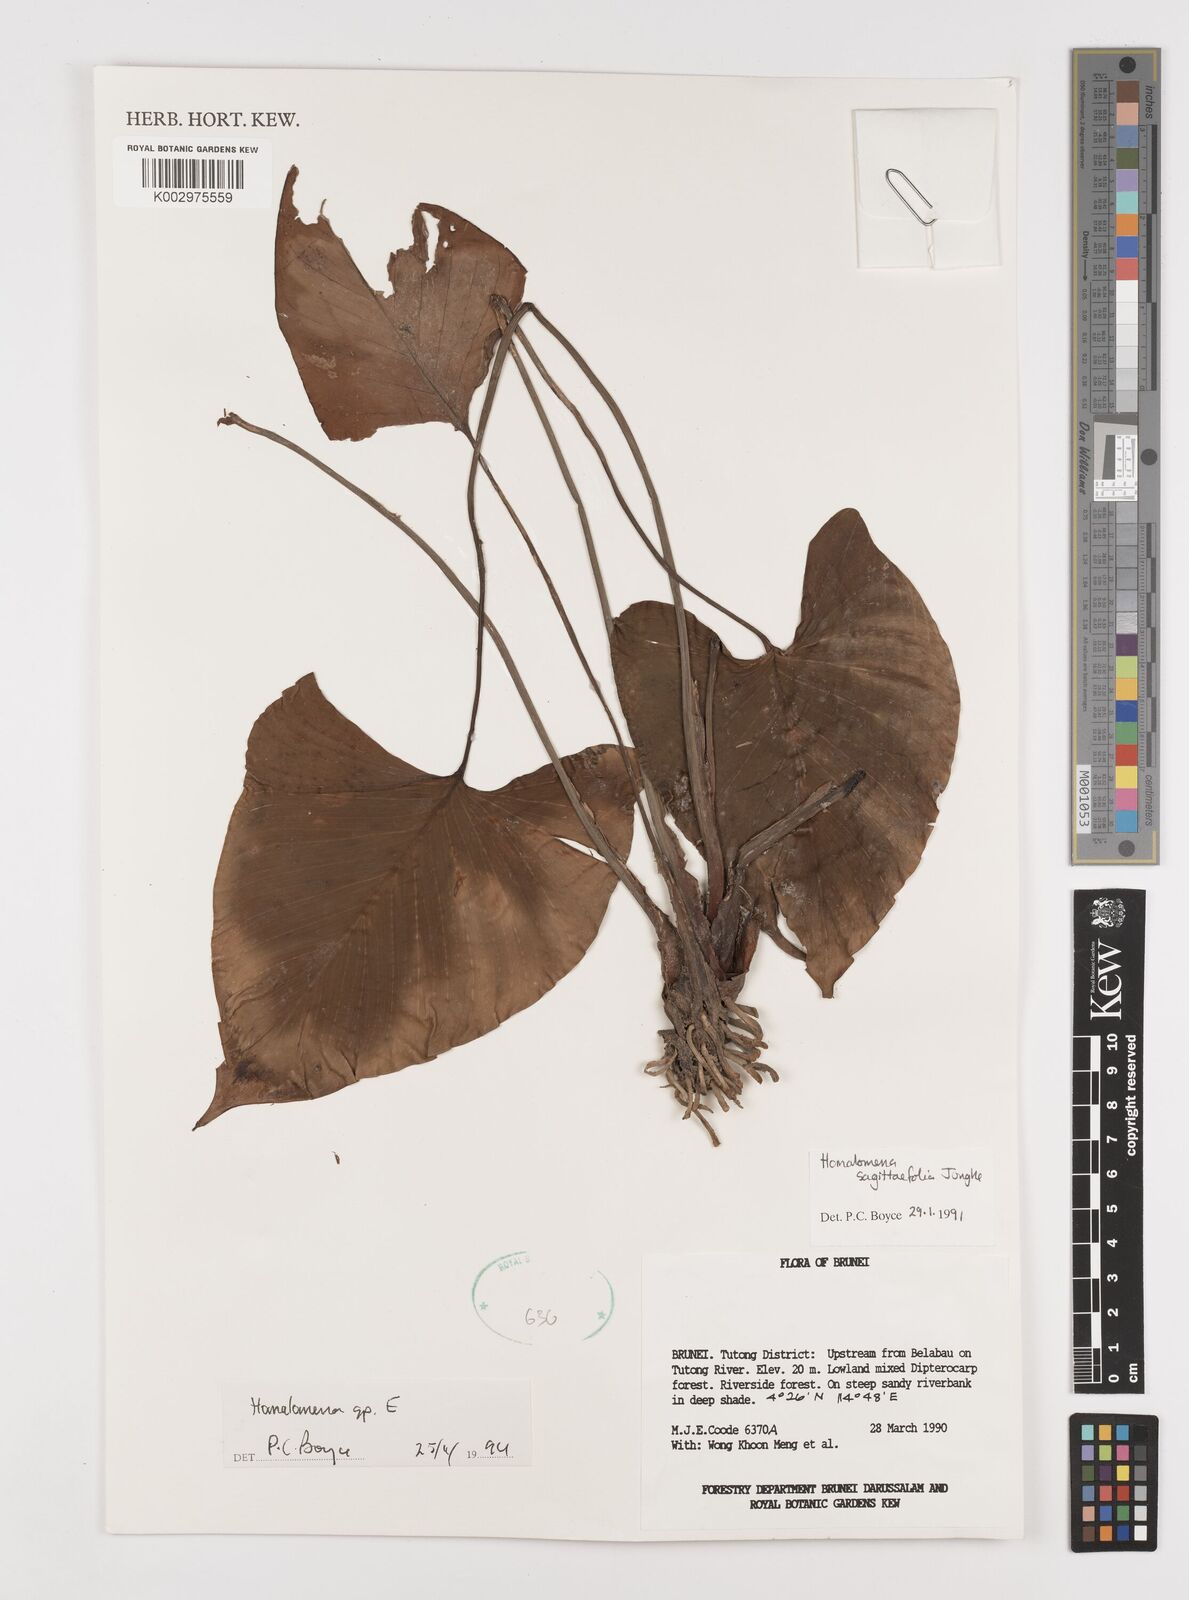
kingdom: Plantae
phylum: Tracheophyta
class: Liliopsida
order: Alismatales
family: Araceae
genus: Homalomena
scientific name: Homalomena
